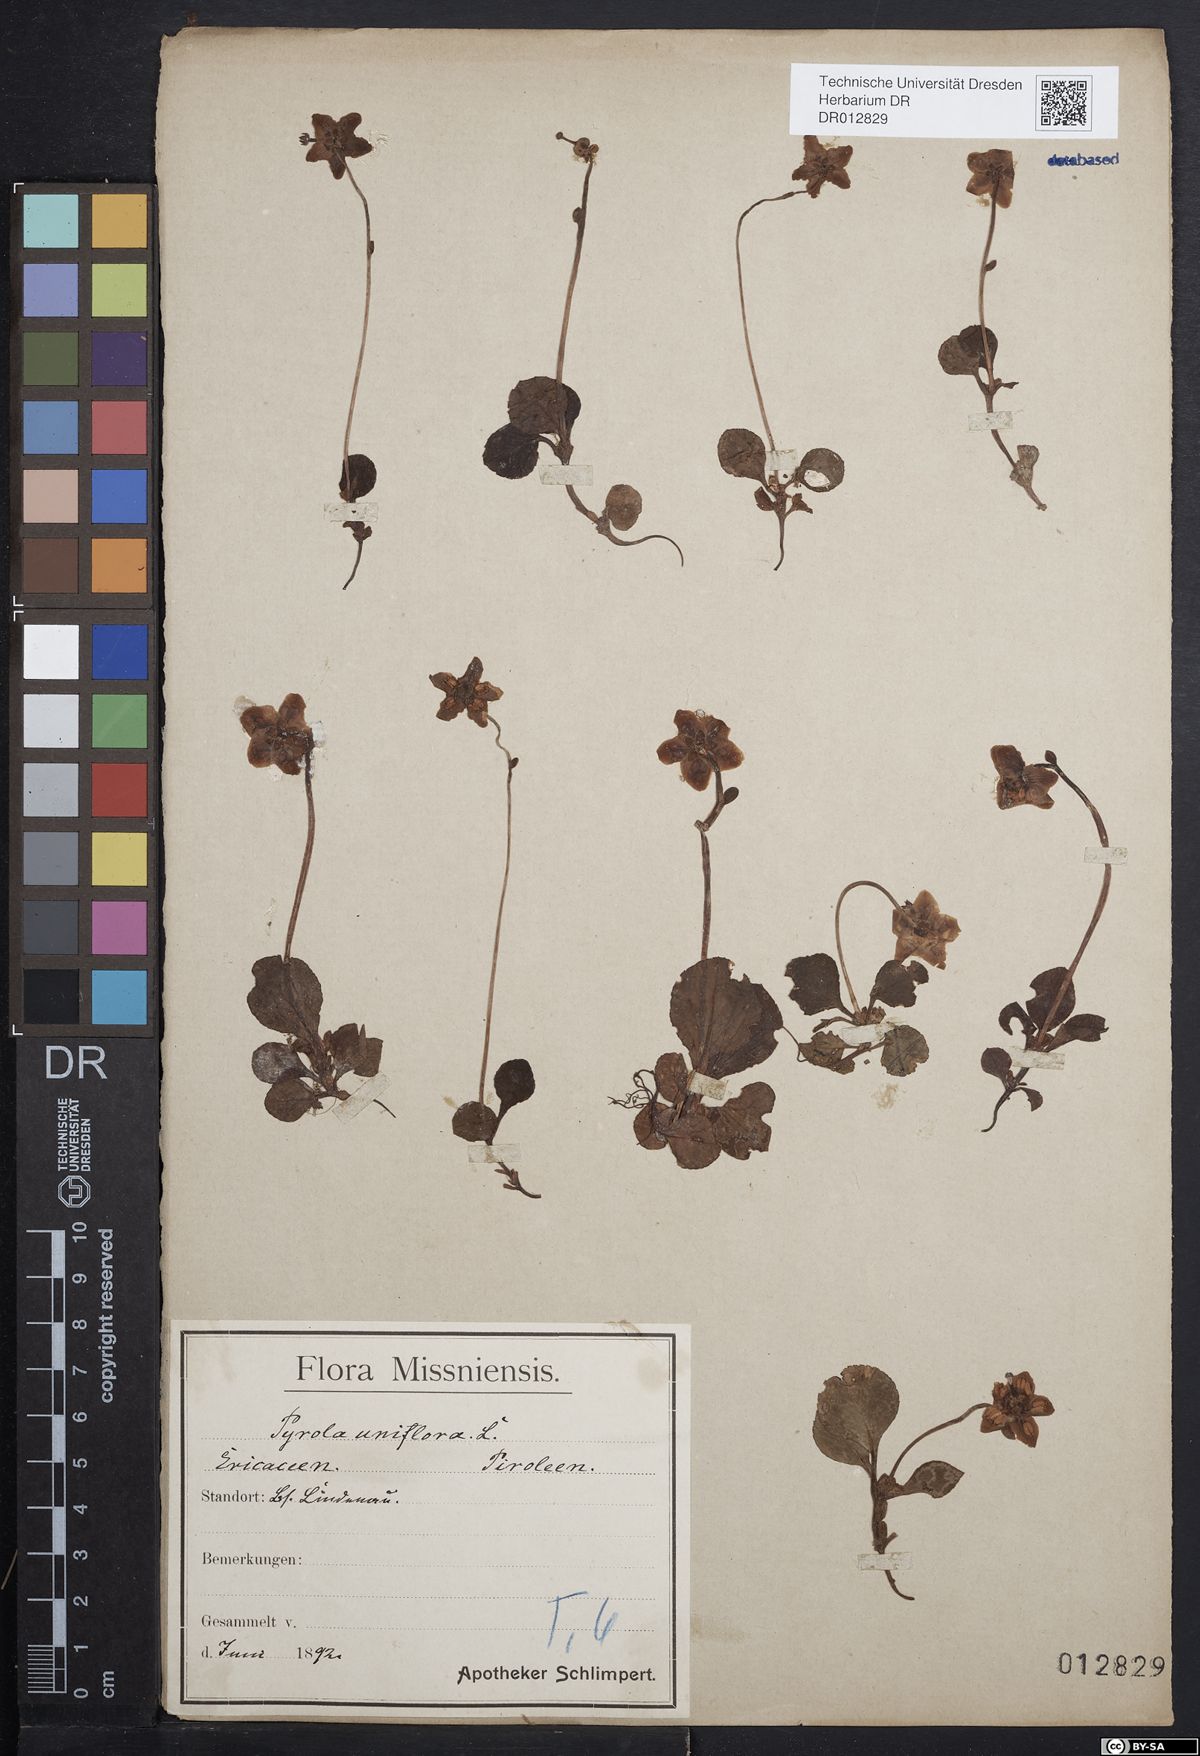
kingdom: Plantae
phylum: Tracheophyta
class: Magnoliopsida
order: Ericales
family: Ericaceae
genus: Moneses
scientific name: Moneses uniflora
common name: One-flowered wintergreen
